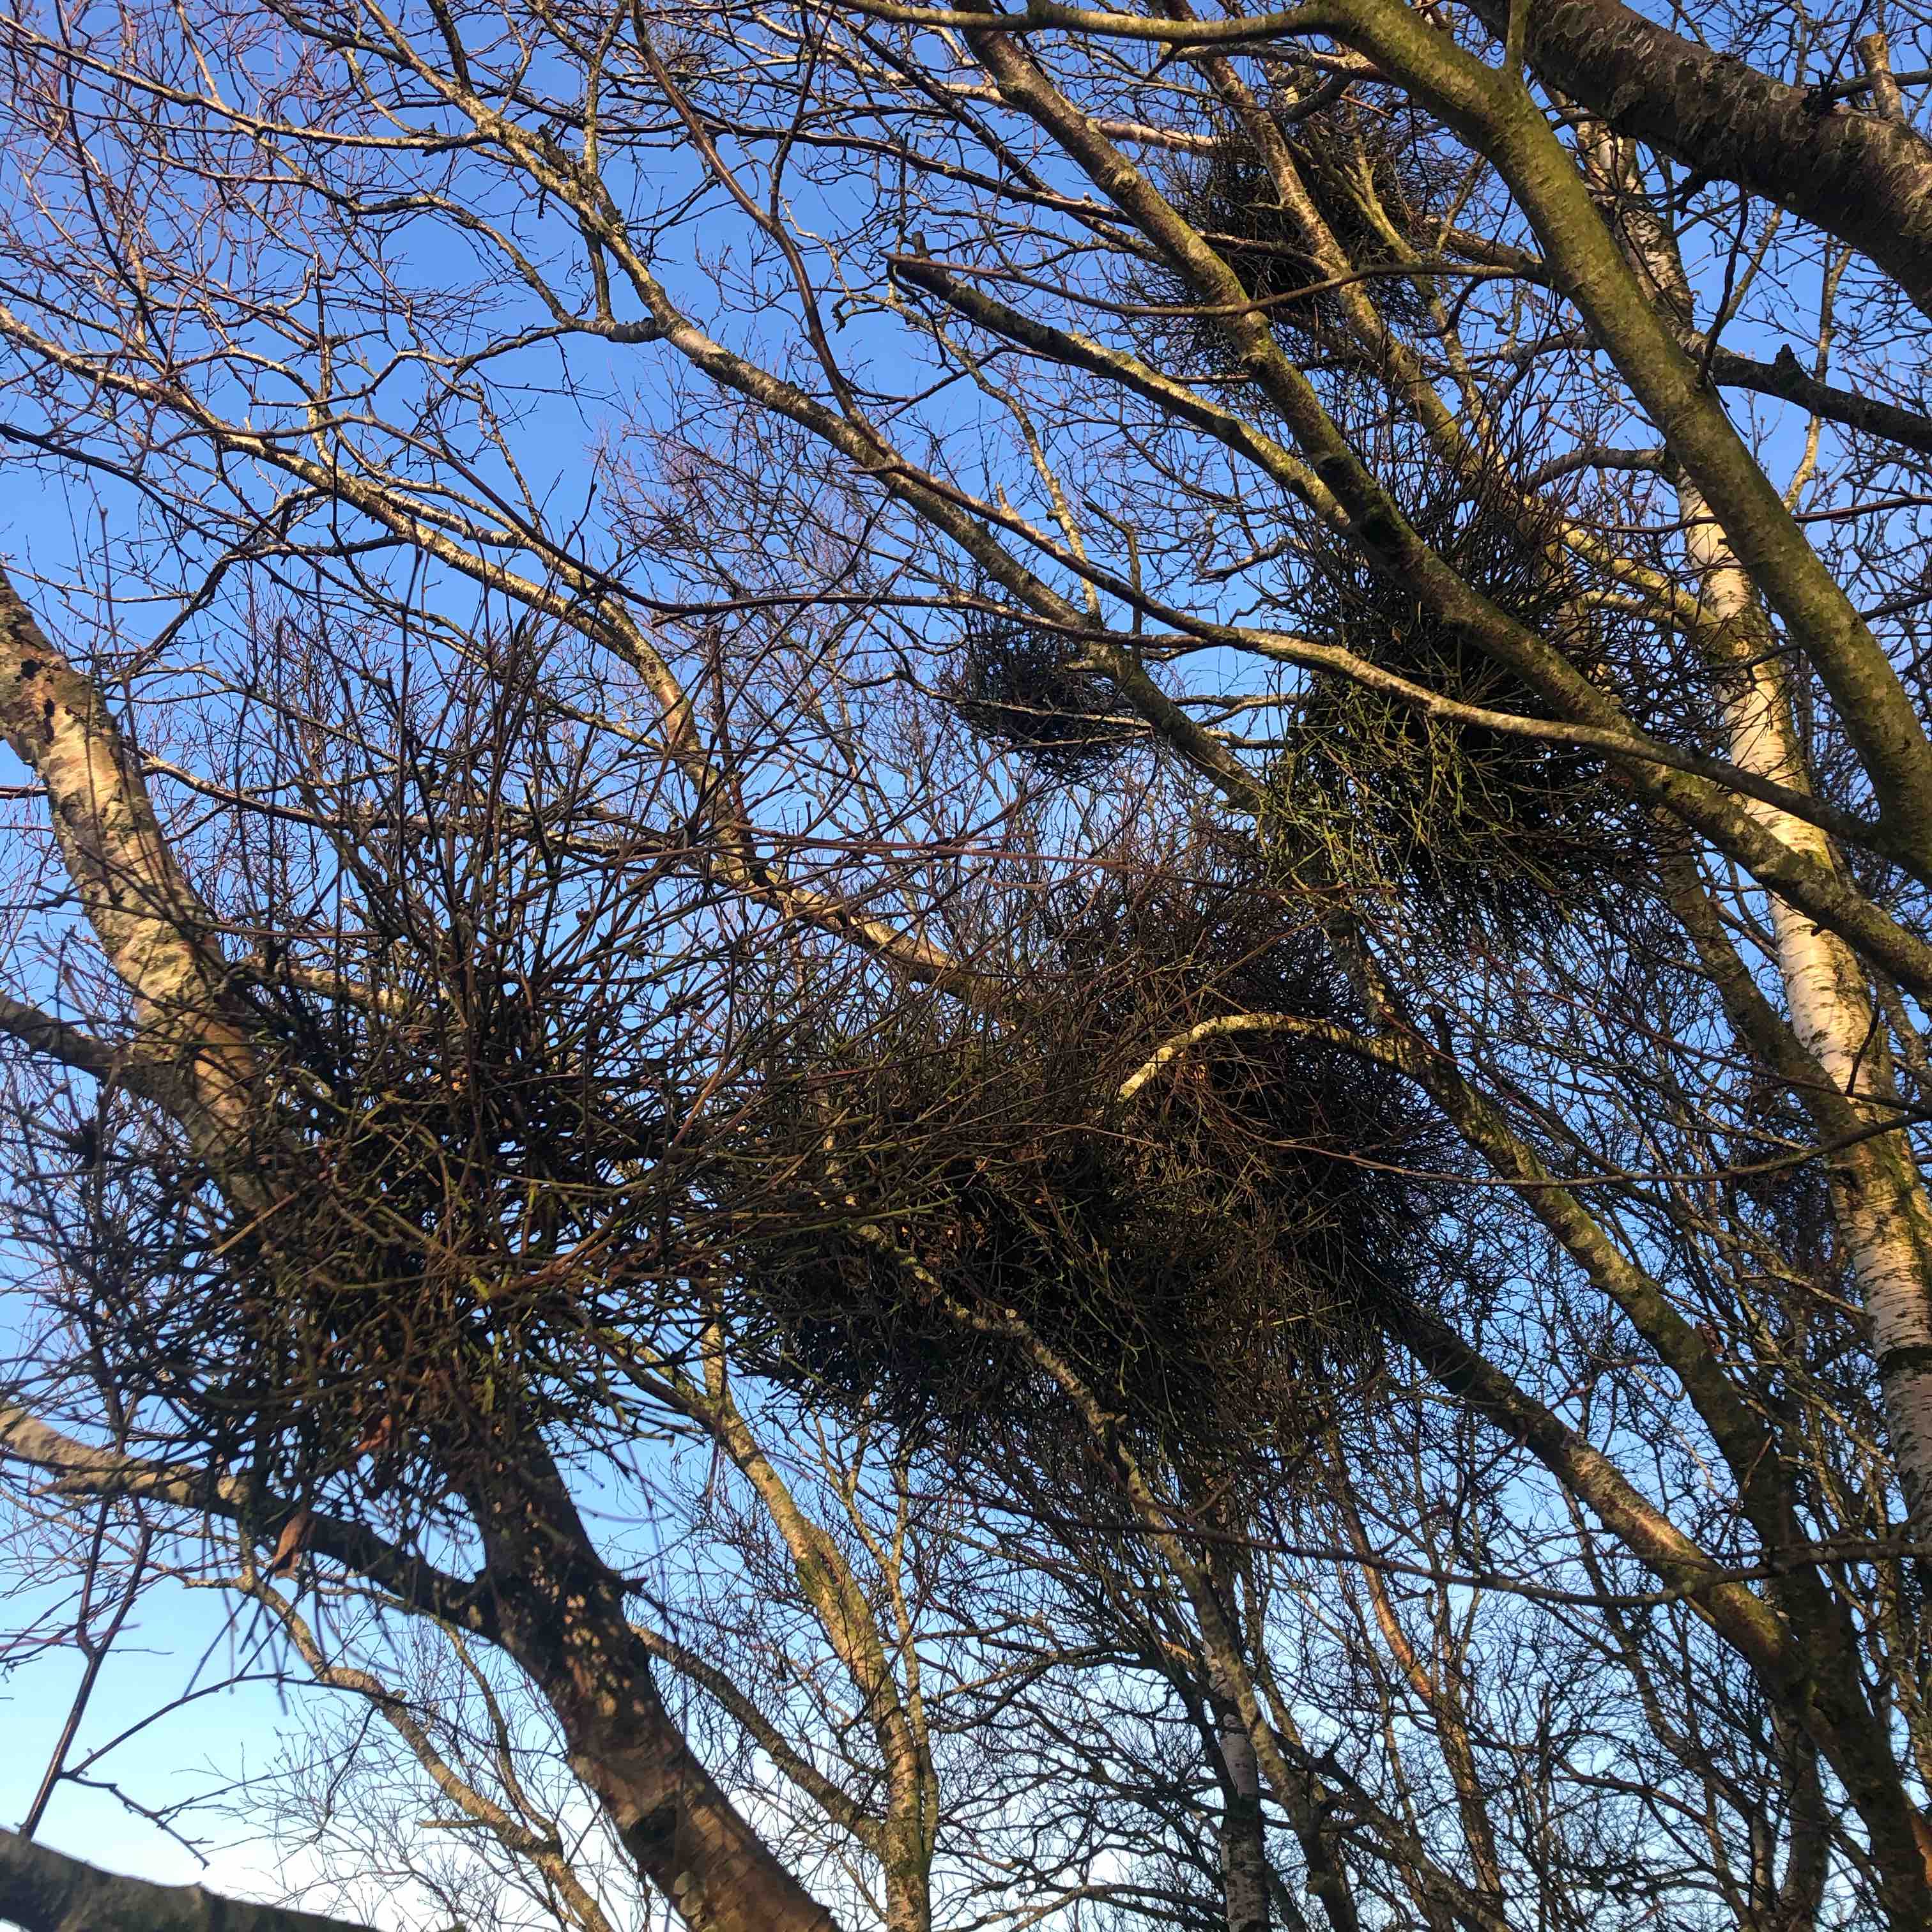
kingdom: Fungi
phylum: Ascomycota
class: Taphrinomycetes
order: Taphrinales
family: Taphrinaceae
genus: Taphrina
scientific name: Taphrina betulina
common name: hekse-sækdug
